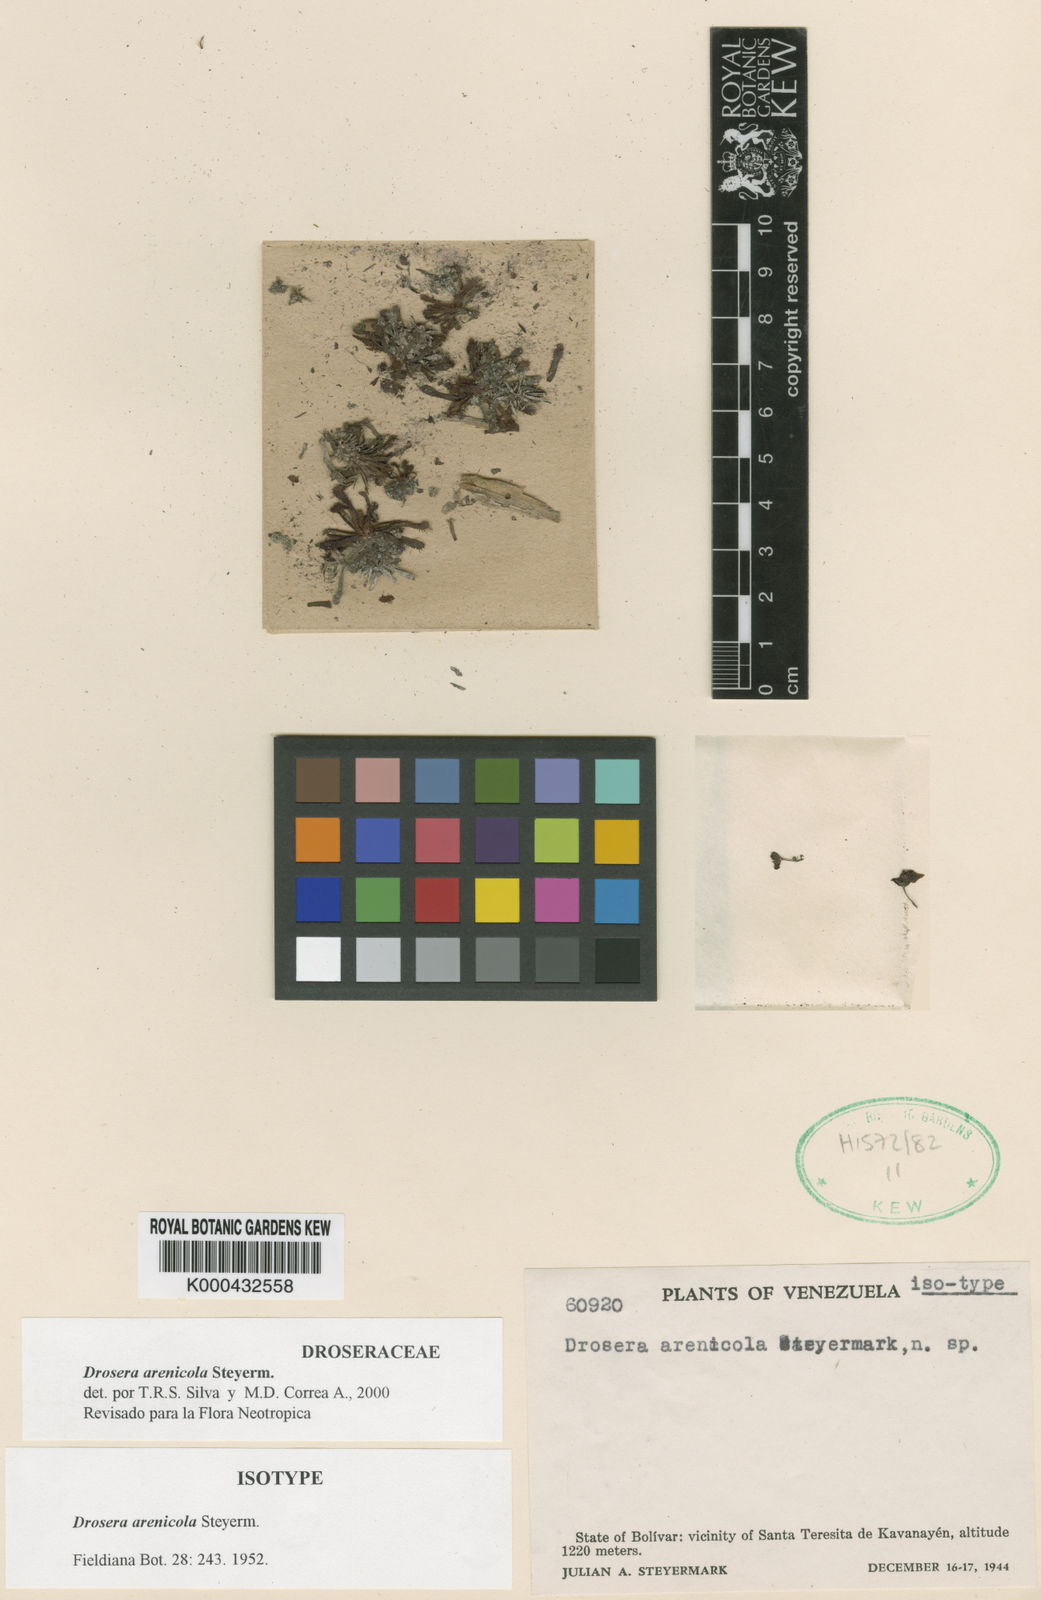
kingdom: Plantae
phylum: Tracheophyta
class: Magnoliopsida
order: Caryophyllales
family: Droseraceae
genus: Drosera
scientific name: Drosera arenicola
